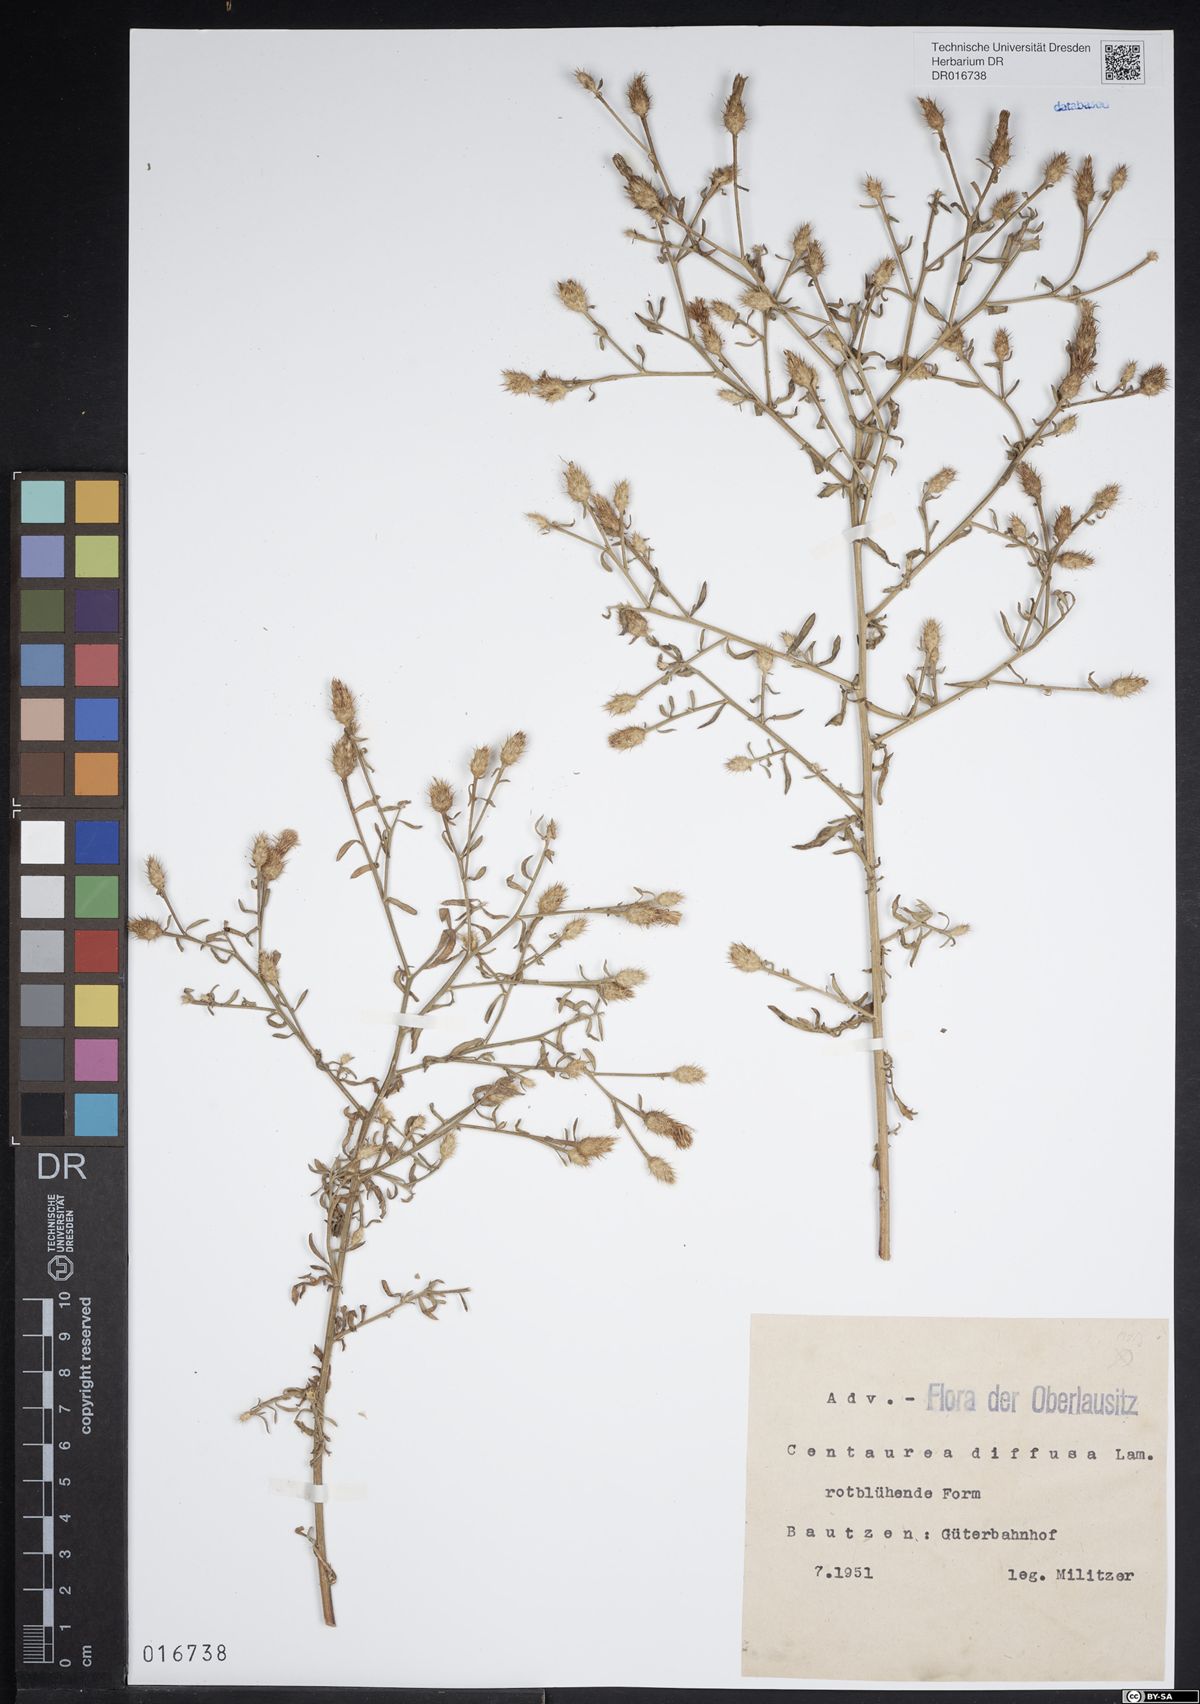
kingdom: Plantae
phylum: Tracheophyta
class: Magnoliopsida
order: Asterales
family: Asteraceae
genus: Centaurea
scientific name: Centaurea diffusa
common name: Diffuse knapweed
